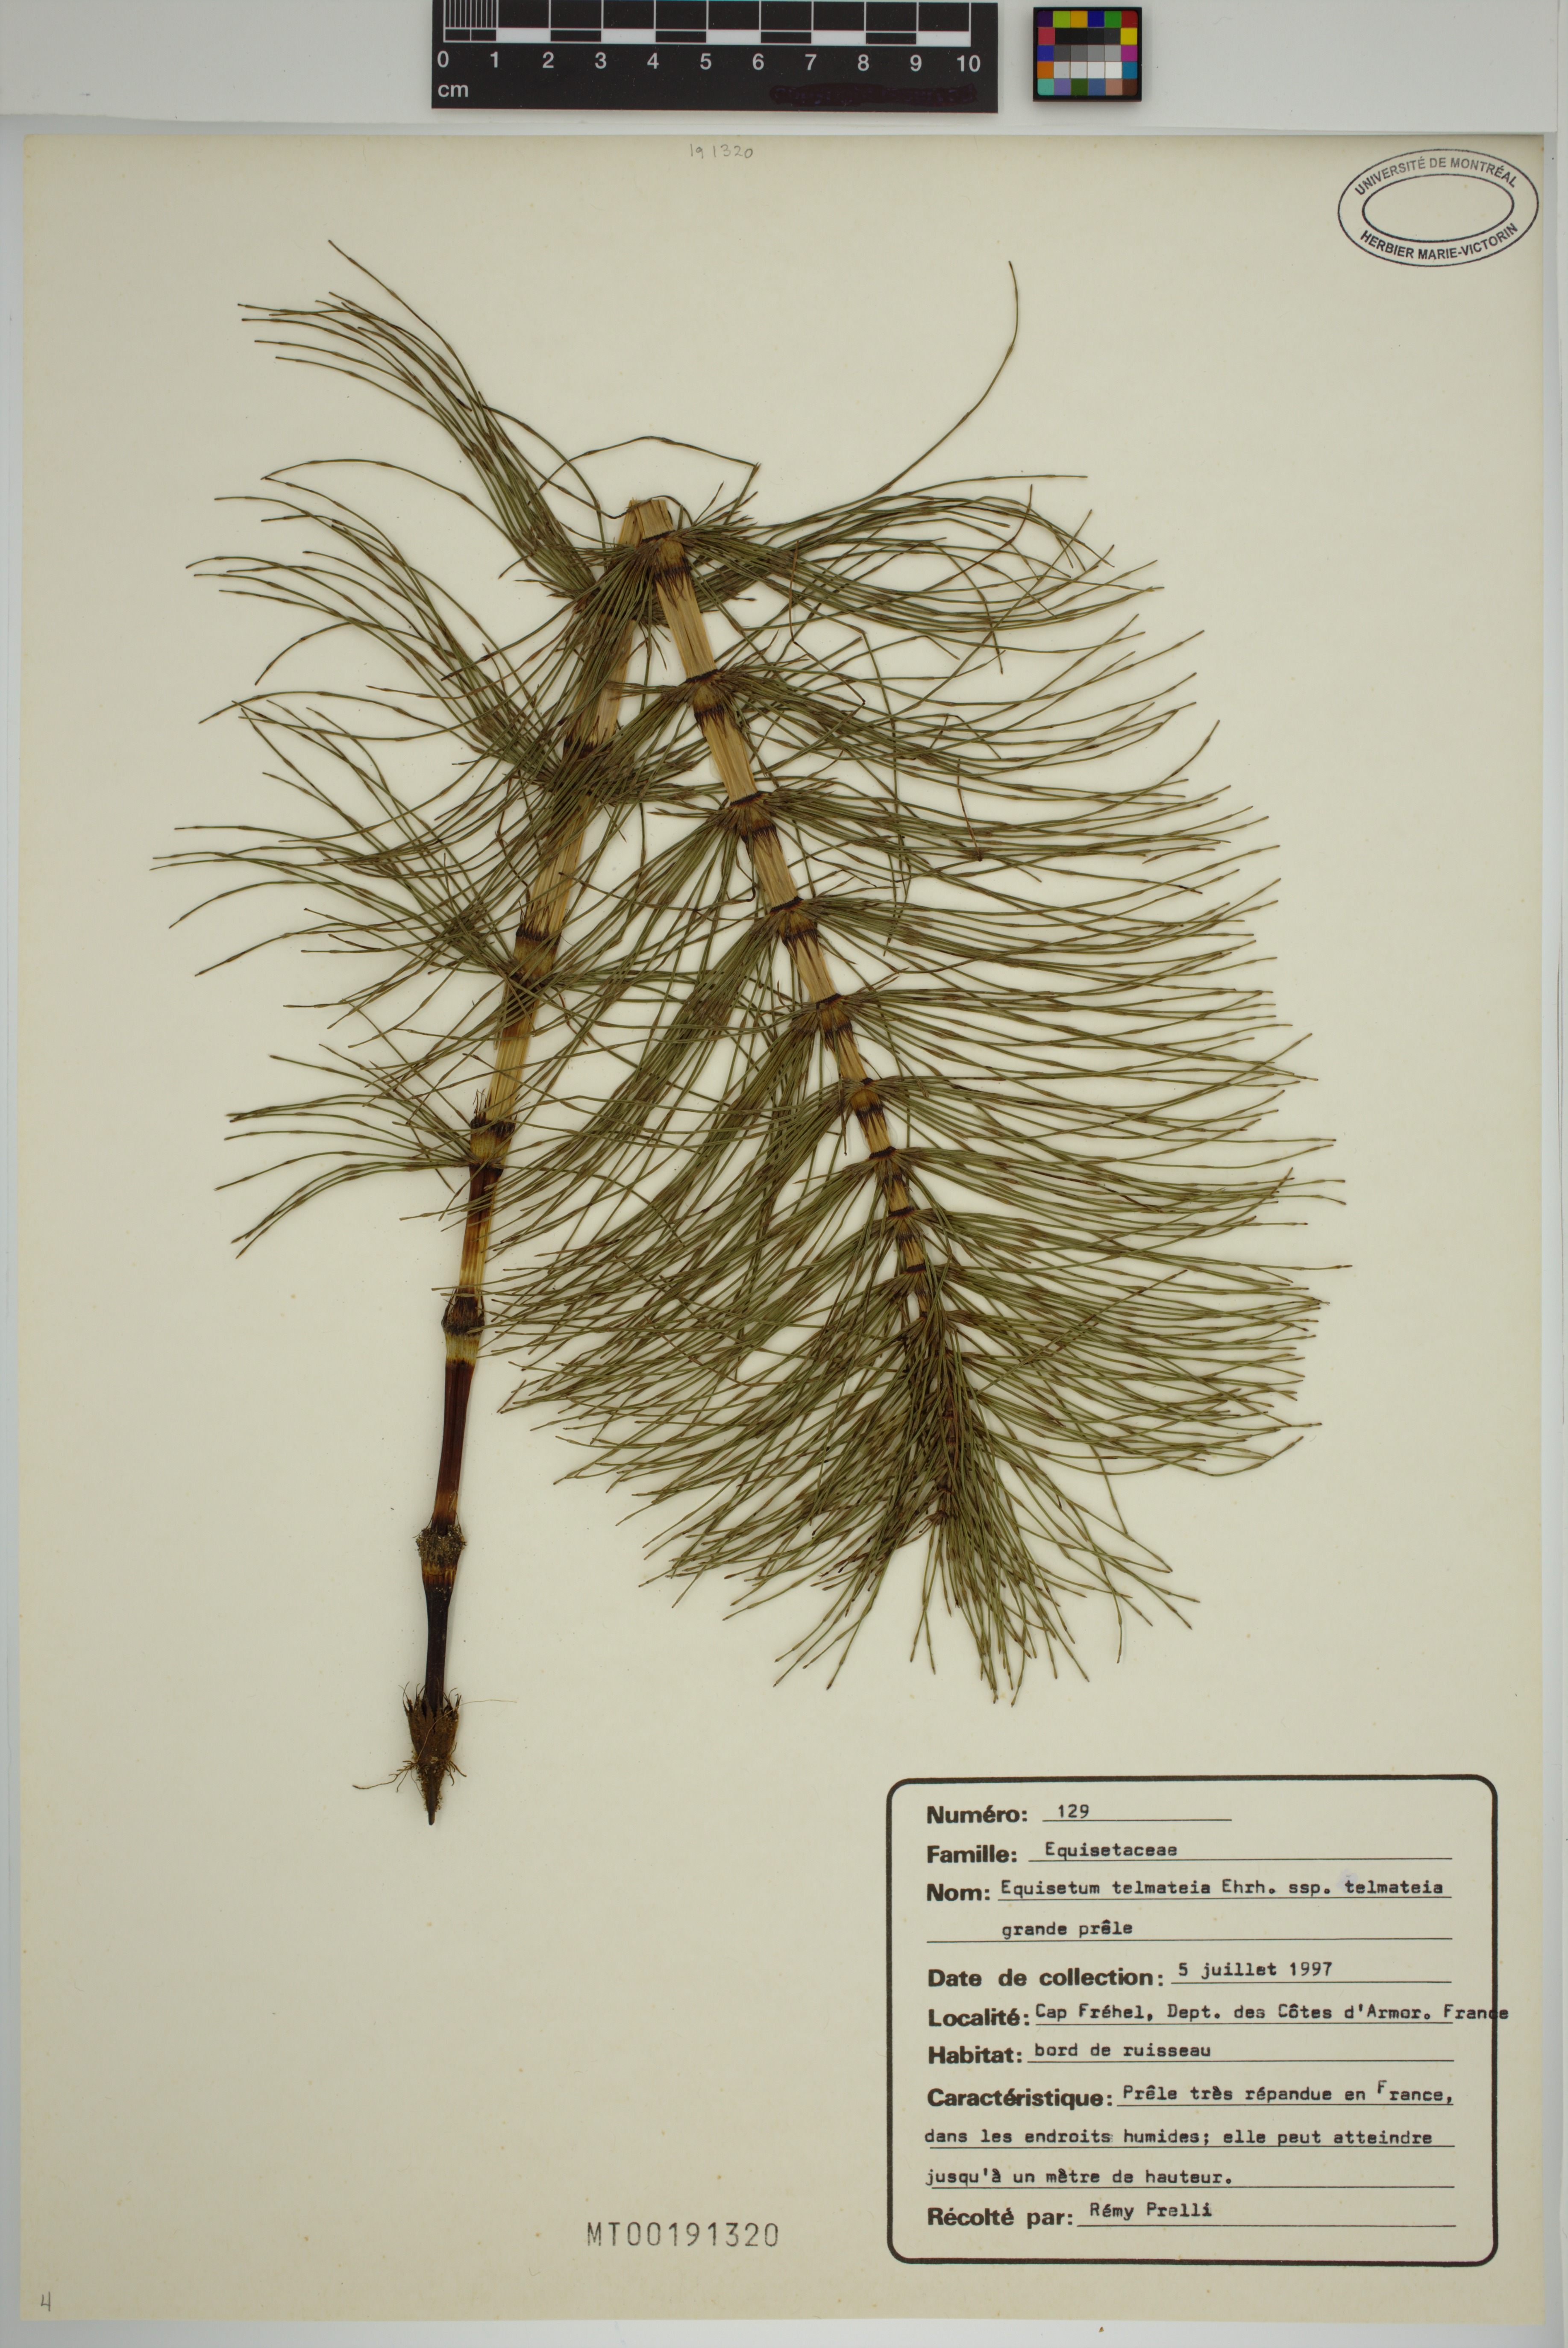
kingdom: Plantae
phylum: Tracheophyta
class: Polypodiopsida
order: Equisetales
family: Equisetaceae
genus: Equisetum
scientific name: Equisetum telmateia
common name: Great horsetail
